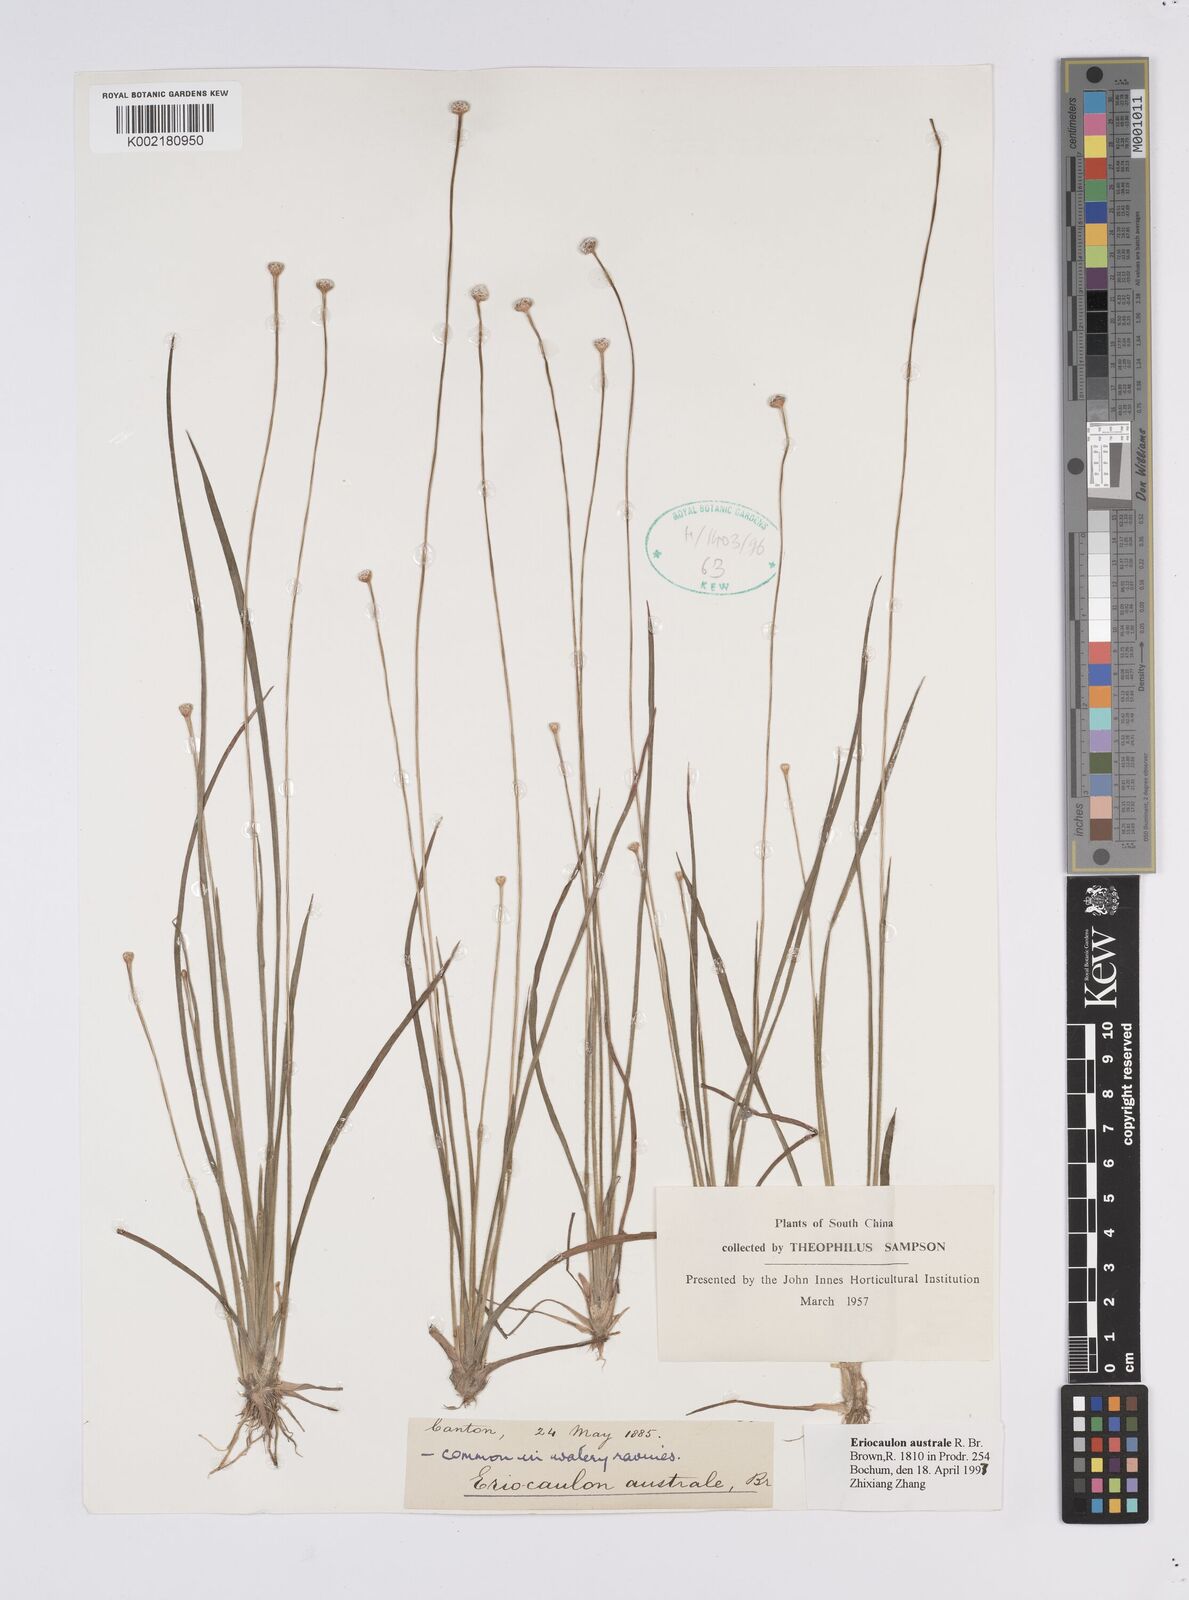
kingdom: Plantae
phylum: Tracheophyta
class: Liliopsida
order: Poales
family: Eriocaulaceae
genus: Eriocaulon
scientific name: Eriocaulon australe
